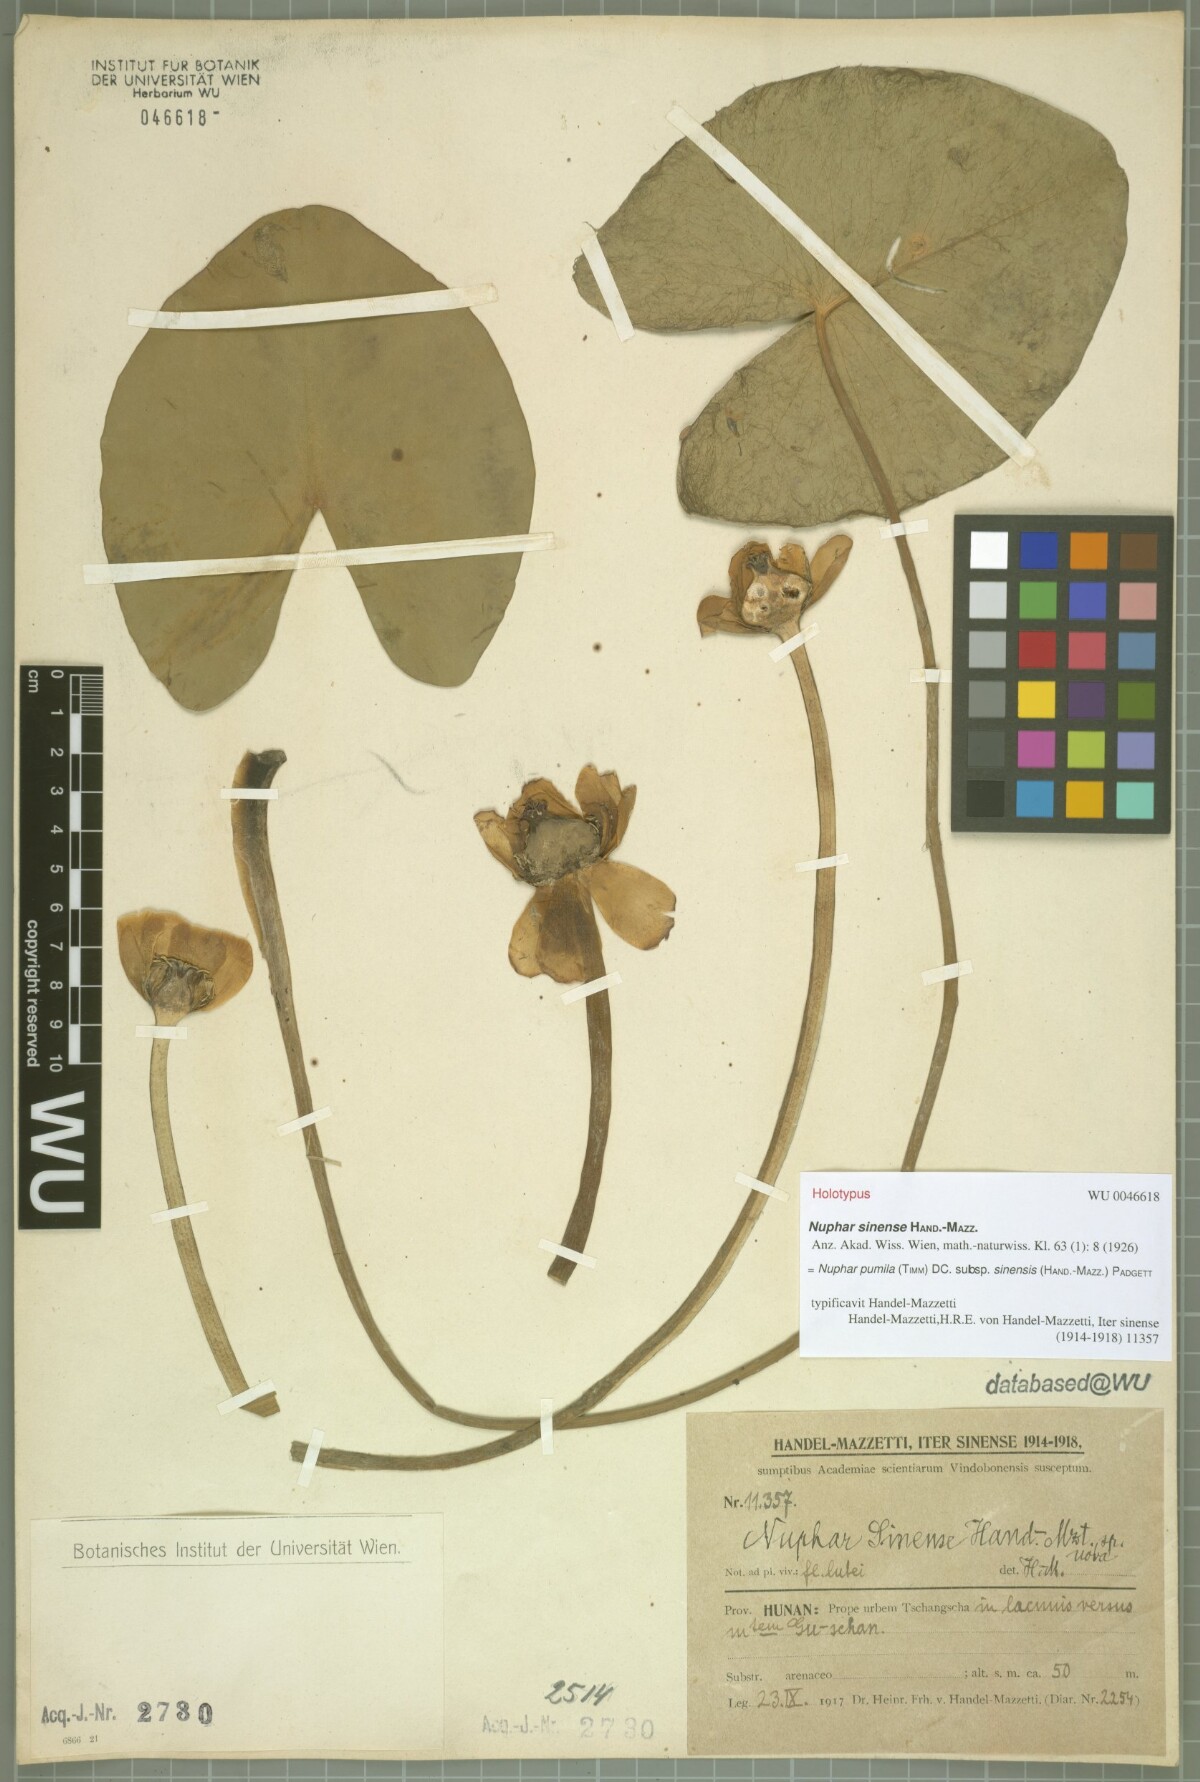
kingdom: Plantae
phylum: Tracheophyta
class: Magnoliopsida
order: Nymphaeales
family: Nymphaeaceae
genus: Nuphar
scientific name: Nuphar pumila
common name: Least water-lily
